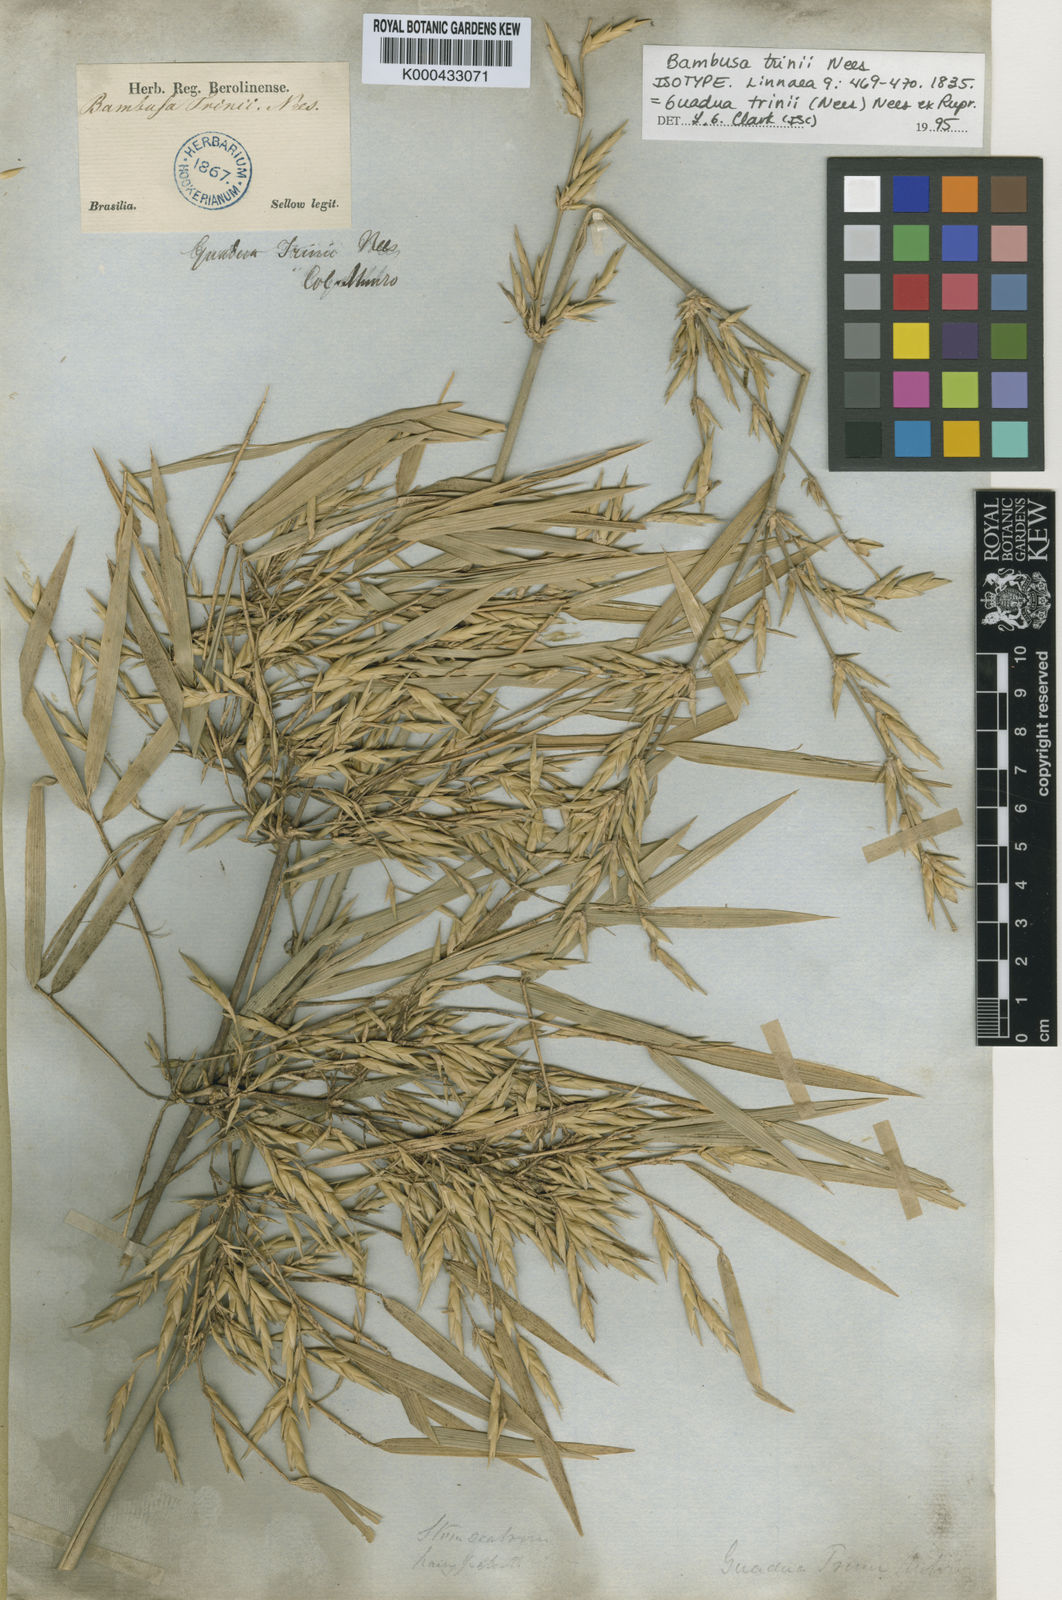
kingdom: Plantae
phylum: Tracheophyta
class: Liliopsida
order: Poales
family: Poaceae
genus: Guadua
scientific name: Guadua trinii
